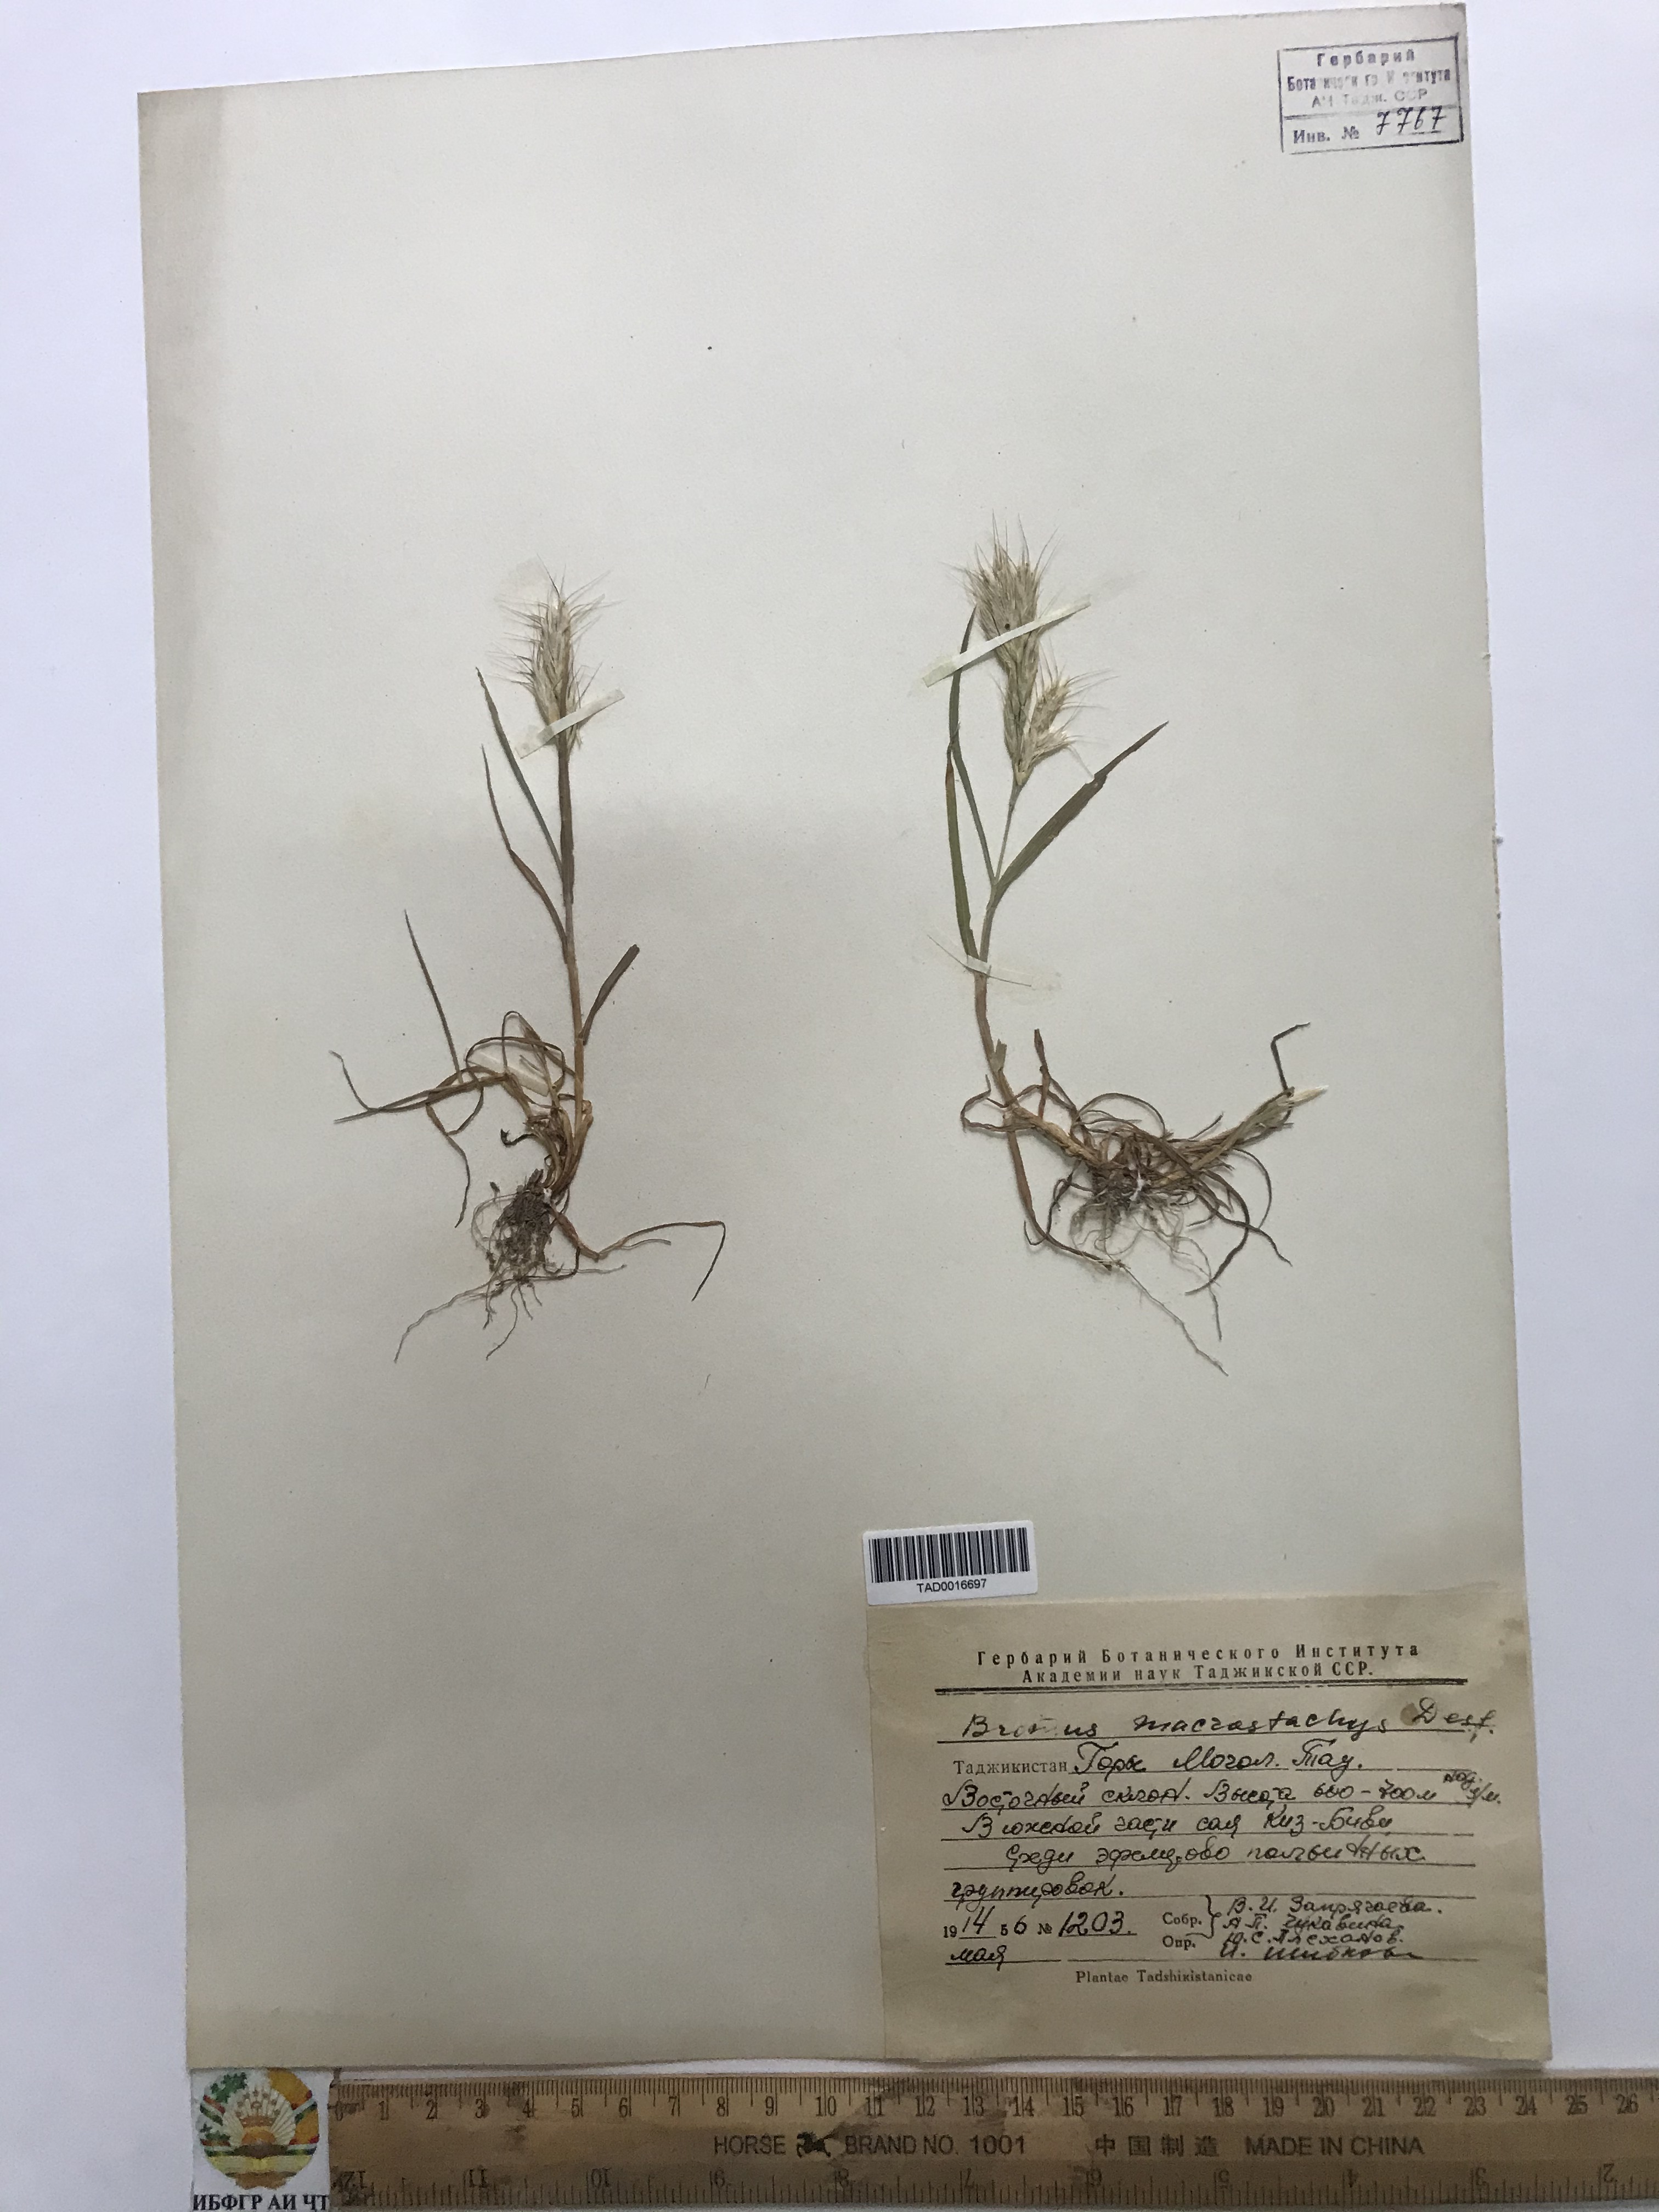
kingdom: Plantae
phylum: Tracheophyta
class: Liliopsida
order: Poales
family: Poaceae
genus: Bromus
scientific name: Bromus lanceolatus
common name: Mediterranean brome
